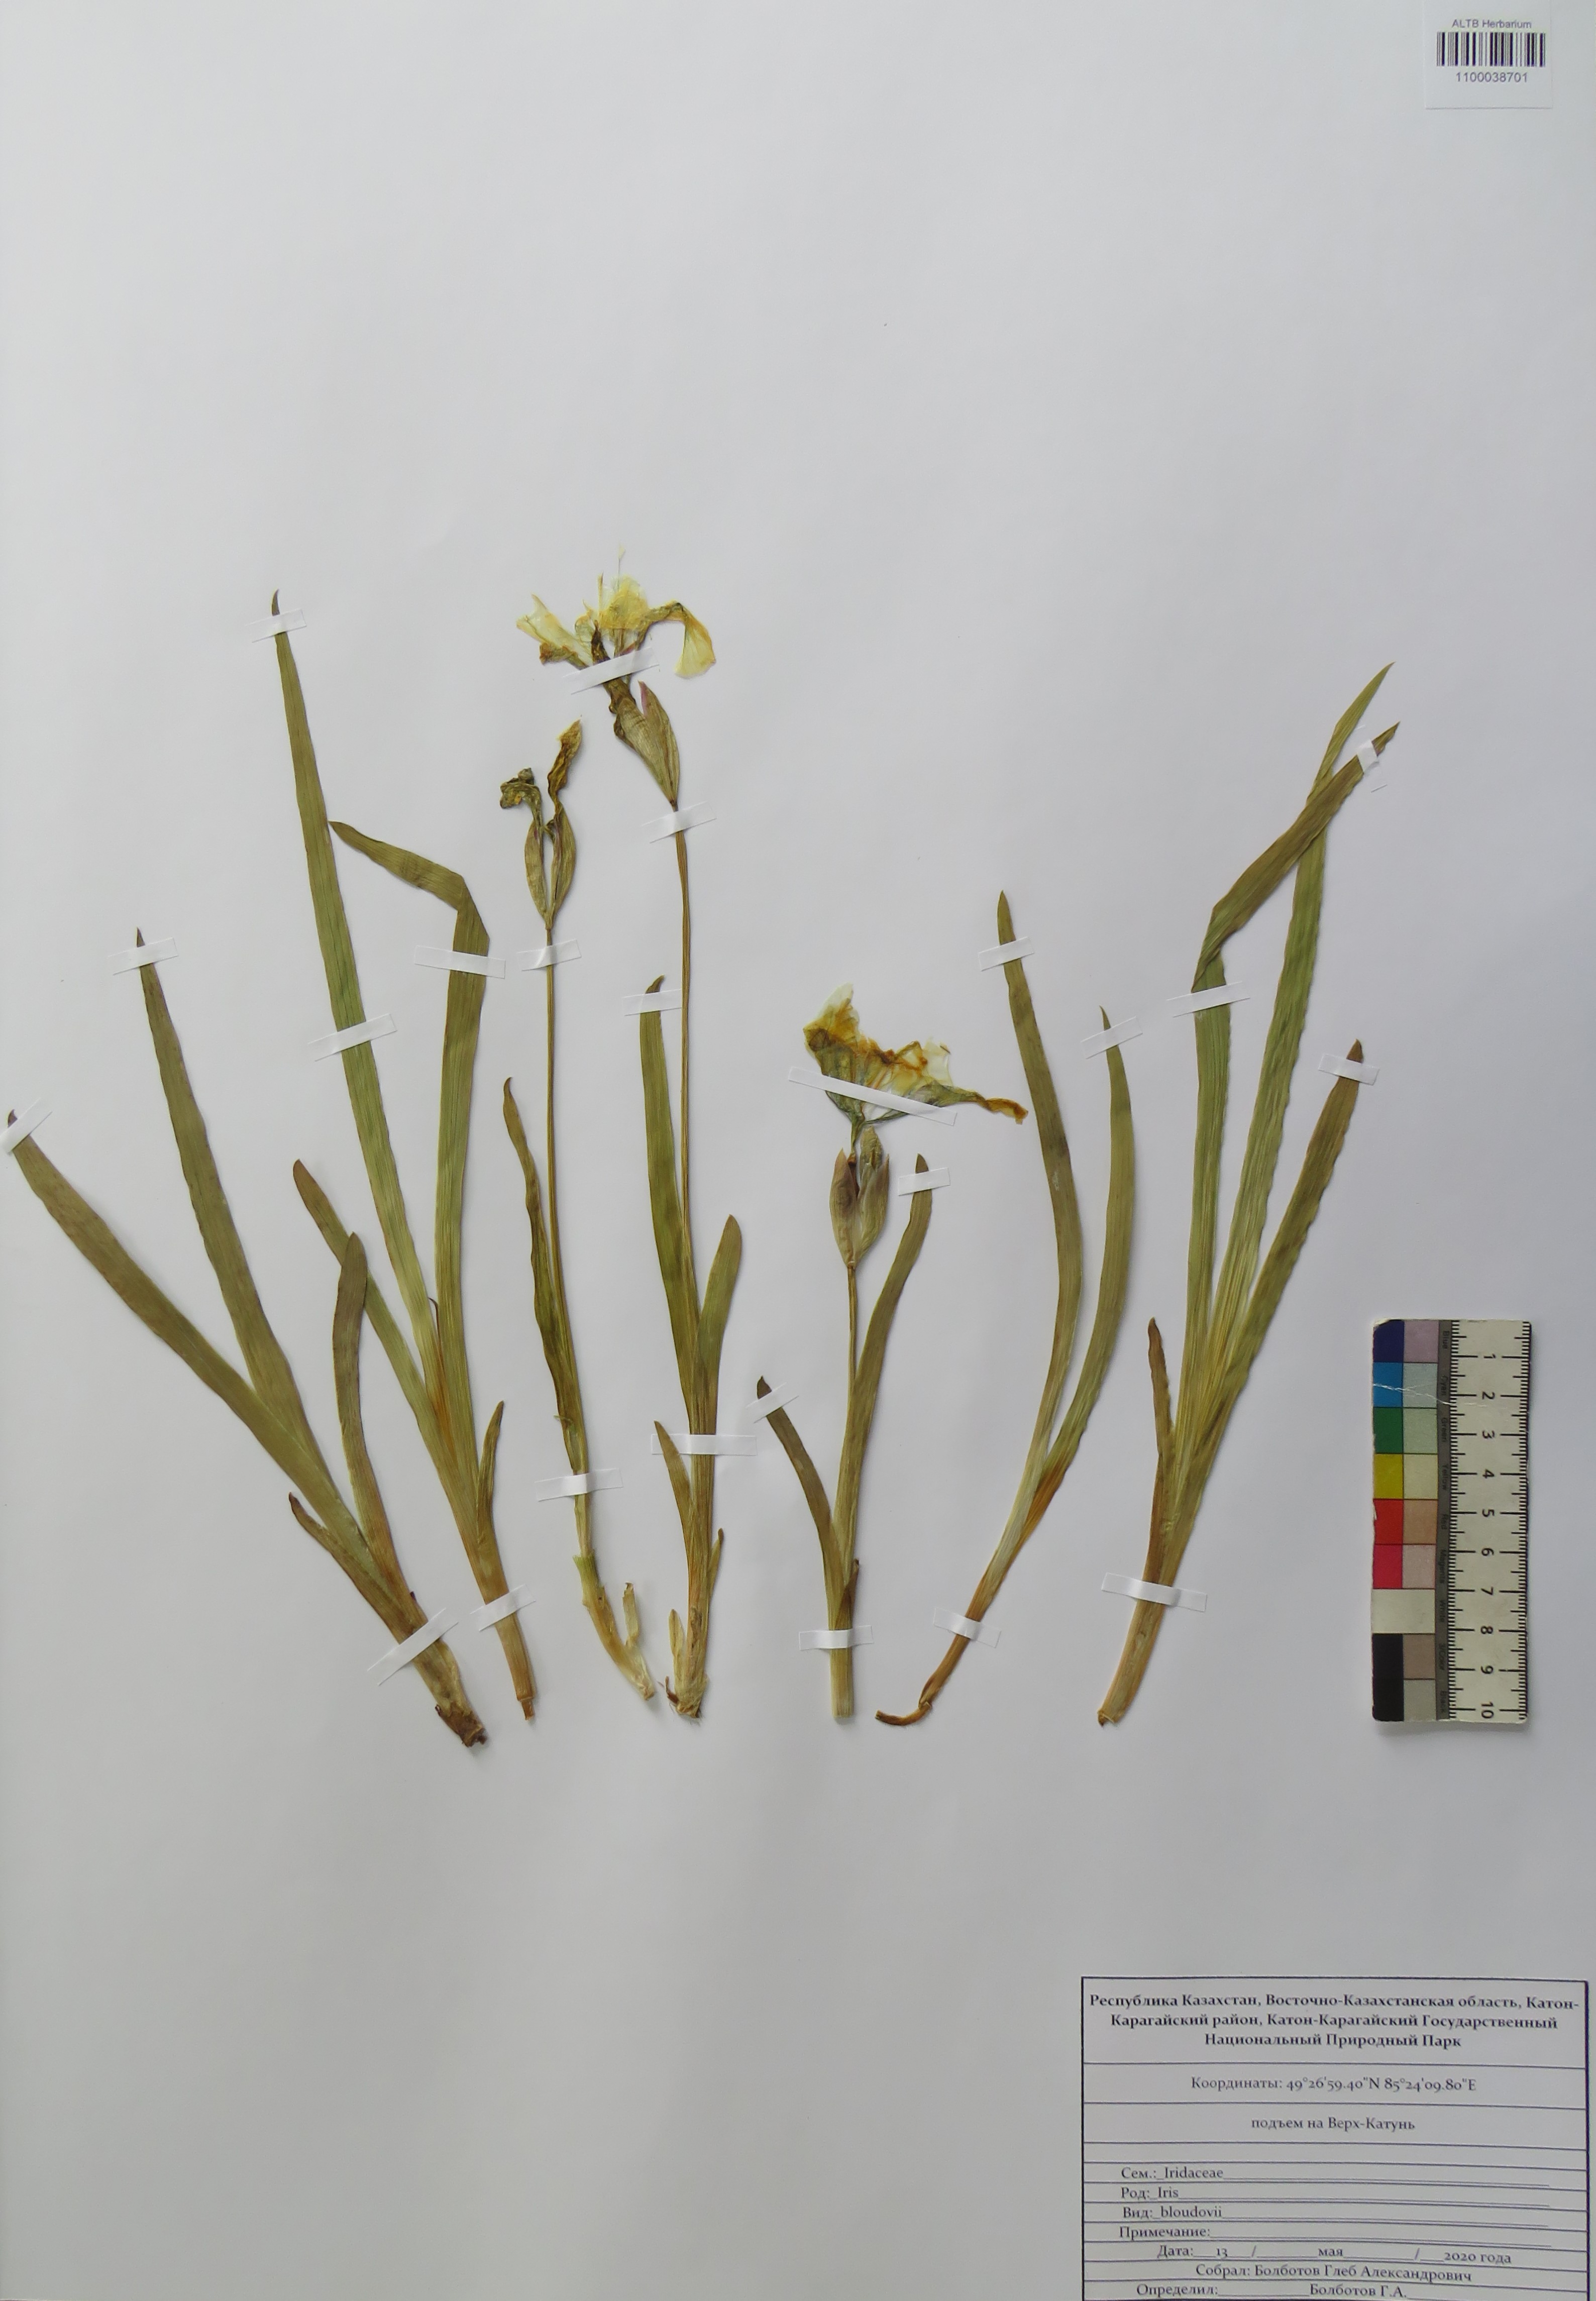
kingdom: Plantae
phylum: Tracheophyta
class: Liliopsida
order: Asparagales
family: Iridaceae
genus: Iris
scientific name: Iris bloudowii
